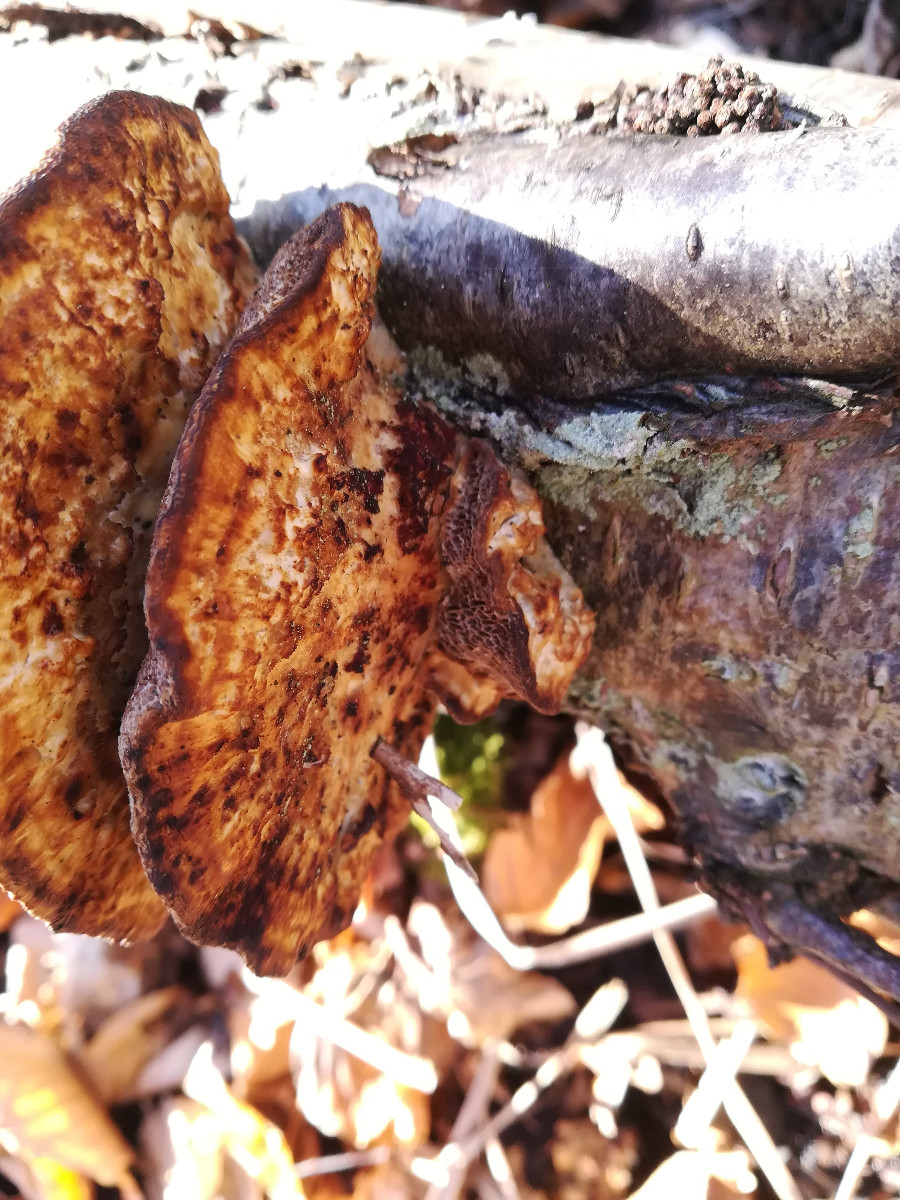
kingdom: Fungi
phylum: Basidiomycota
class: Agaricomycetes
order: Polyporales
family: Polyporaceae
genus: Daedaleopsis
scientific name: Daedaleopsis confragosa
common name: rødmende læderporesvamp
